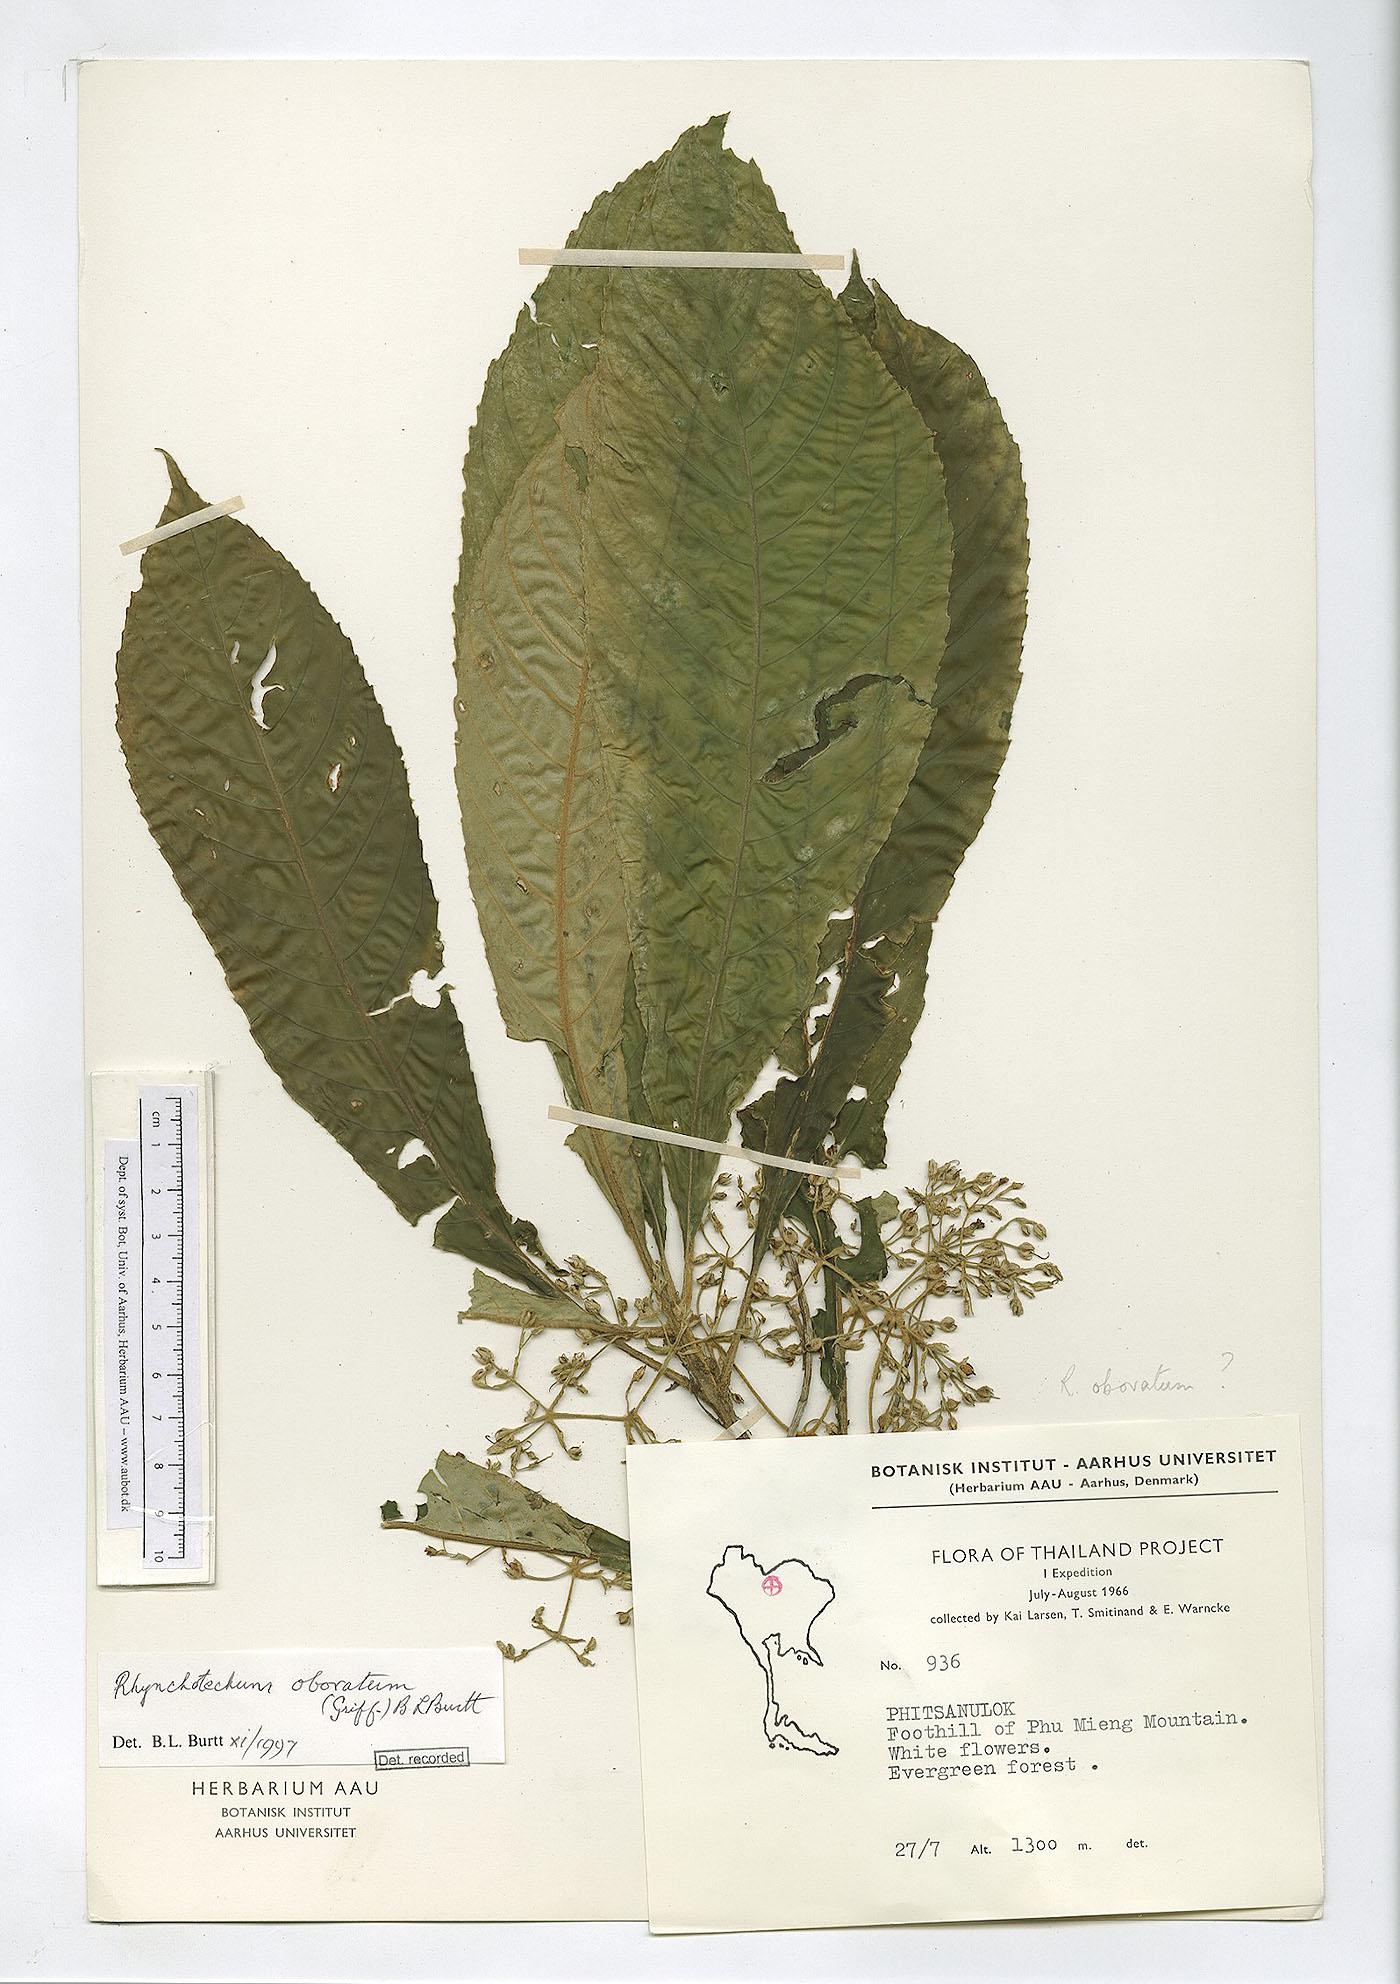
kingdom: Plantae
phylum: Tracheophyta
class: Magnoliopsida
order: Lamiales
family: Gesneriaceae
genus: Rhynchotechum
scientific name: Rhynchotechum obovatum
